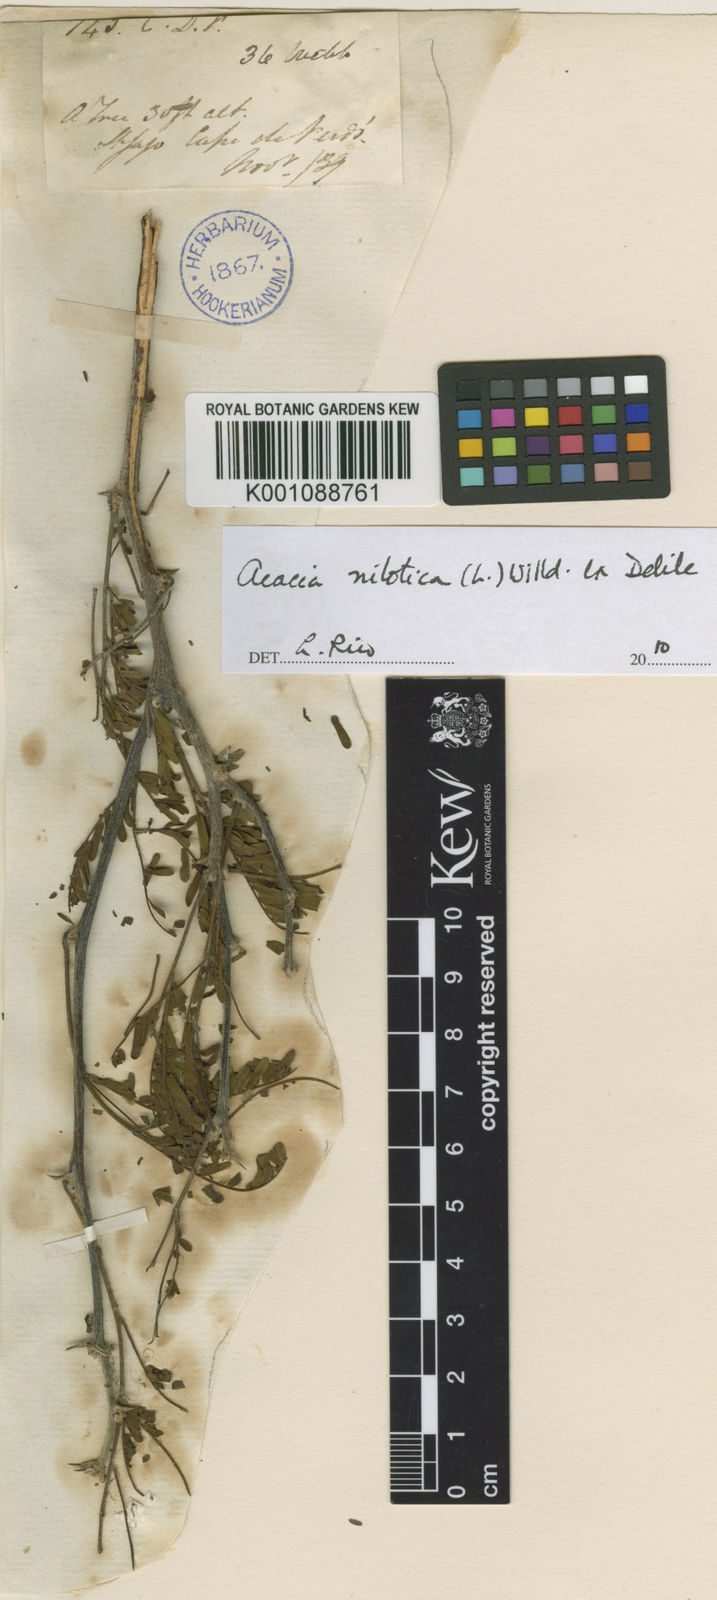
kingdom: Plantae
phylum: Tracheophyta
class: Magnoliopsida
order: Fabales
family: Fabaceae
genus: Vachellia
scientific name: Vachellia nilotica
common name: Arabic gumtree
